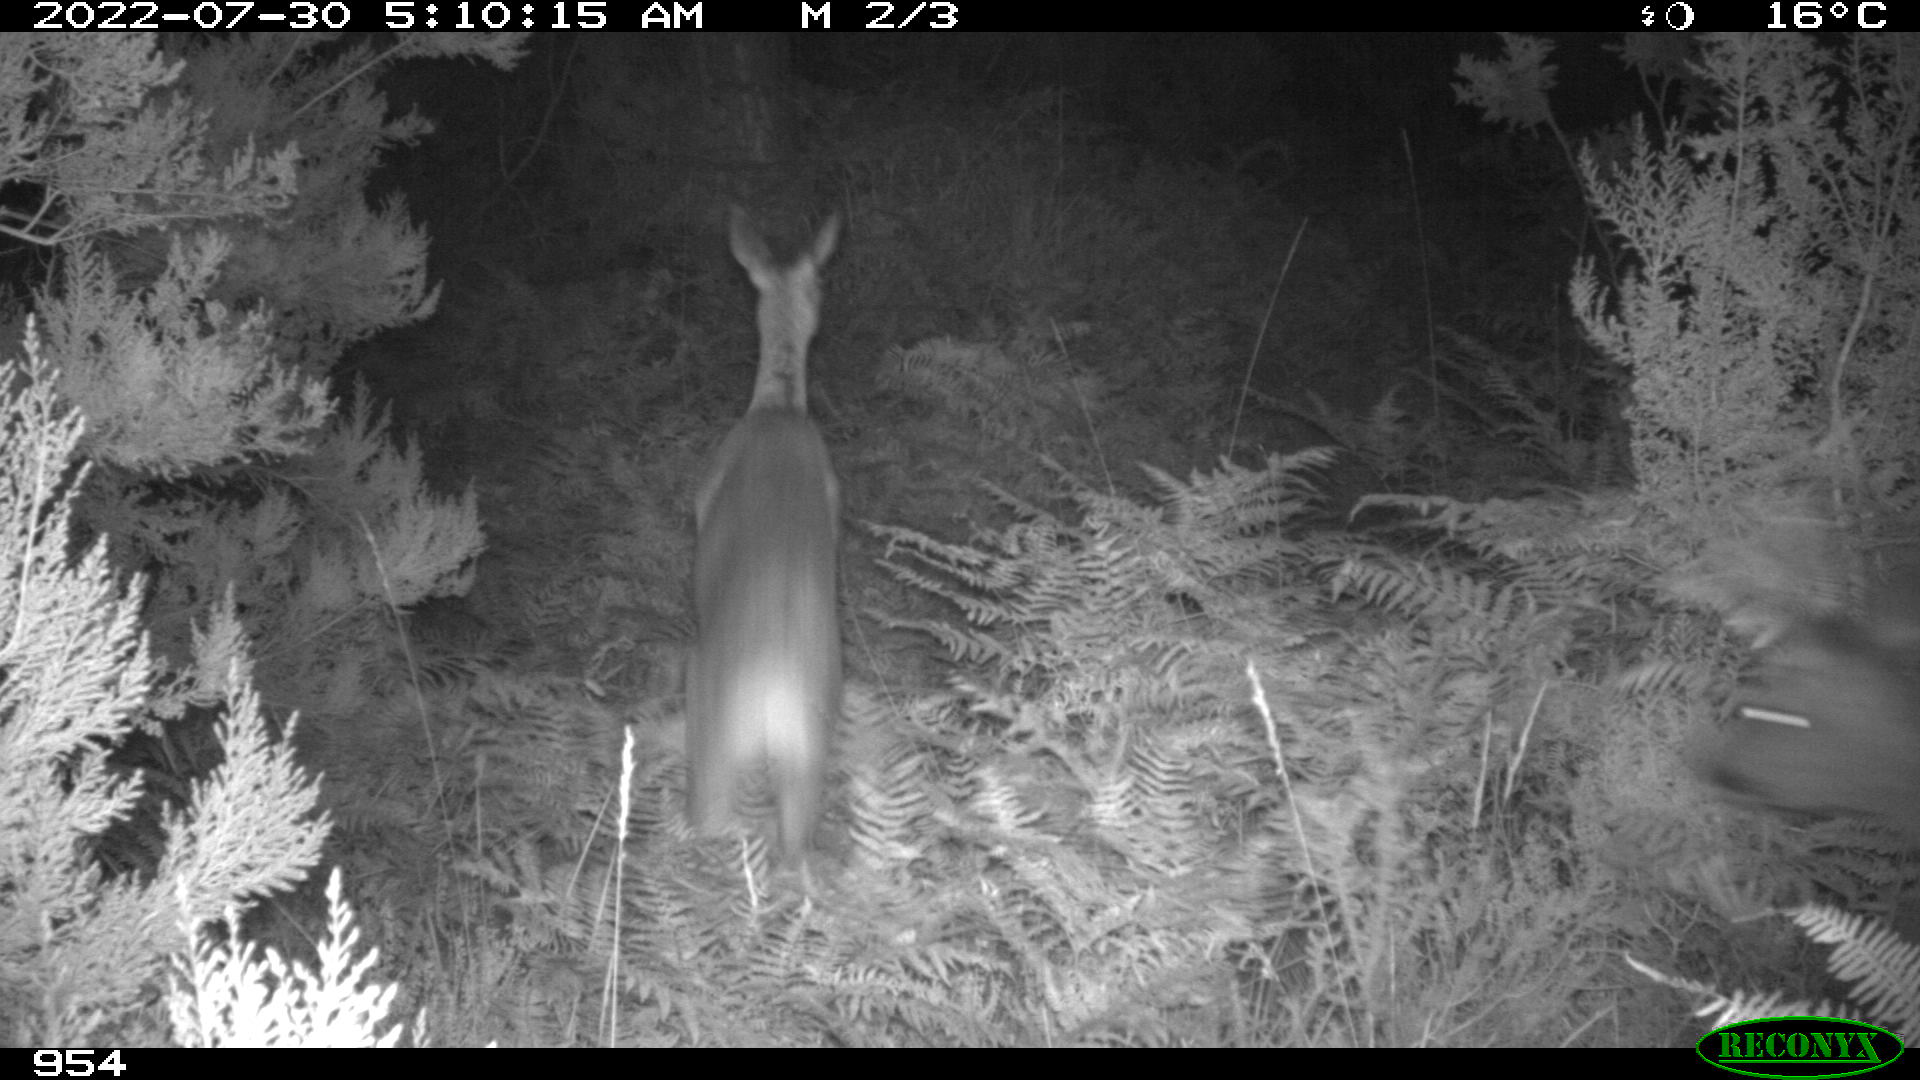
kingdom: Animalia
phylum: Chordata
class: Mammalia
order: Artiodactyla
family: Cervidae
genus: Capreolus
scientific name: Capreolus capreolus
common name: Western roe deer
